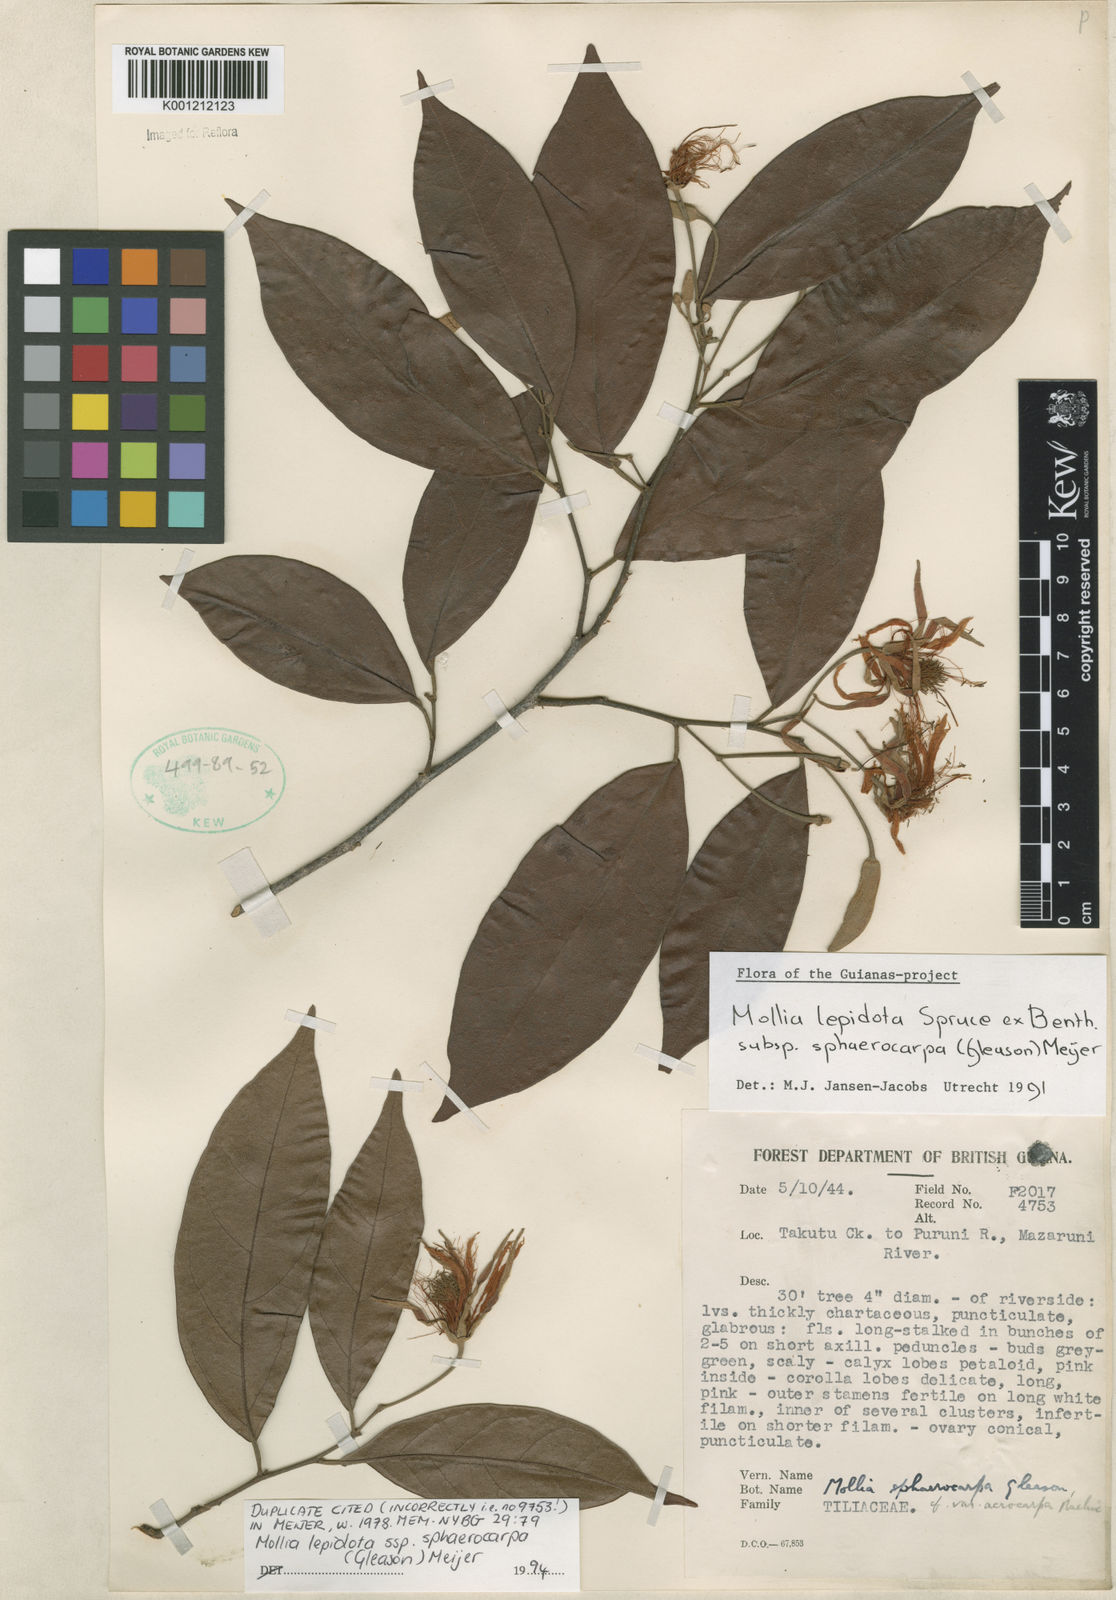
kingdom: Plantae
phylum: Tracheophyta
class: Magnoliopsida
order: Malvales
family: Malvaceae
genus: Mollia
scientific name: Mollia lepidota
